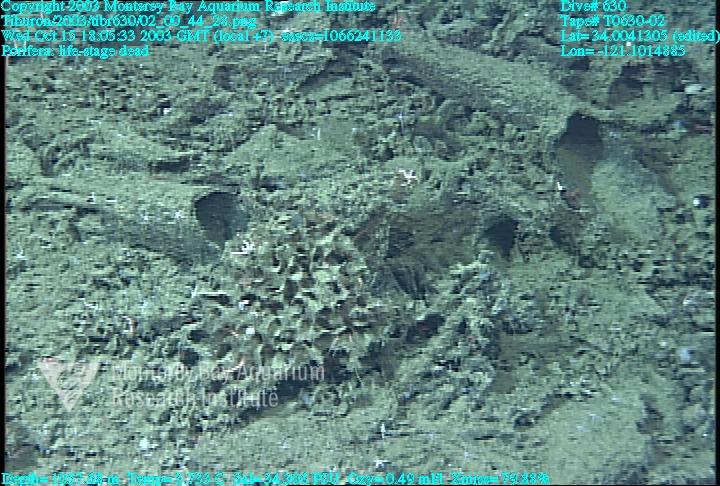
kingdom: Animalia
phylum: Porifera
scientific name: Porifera
